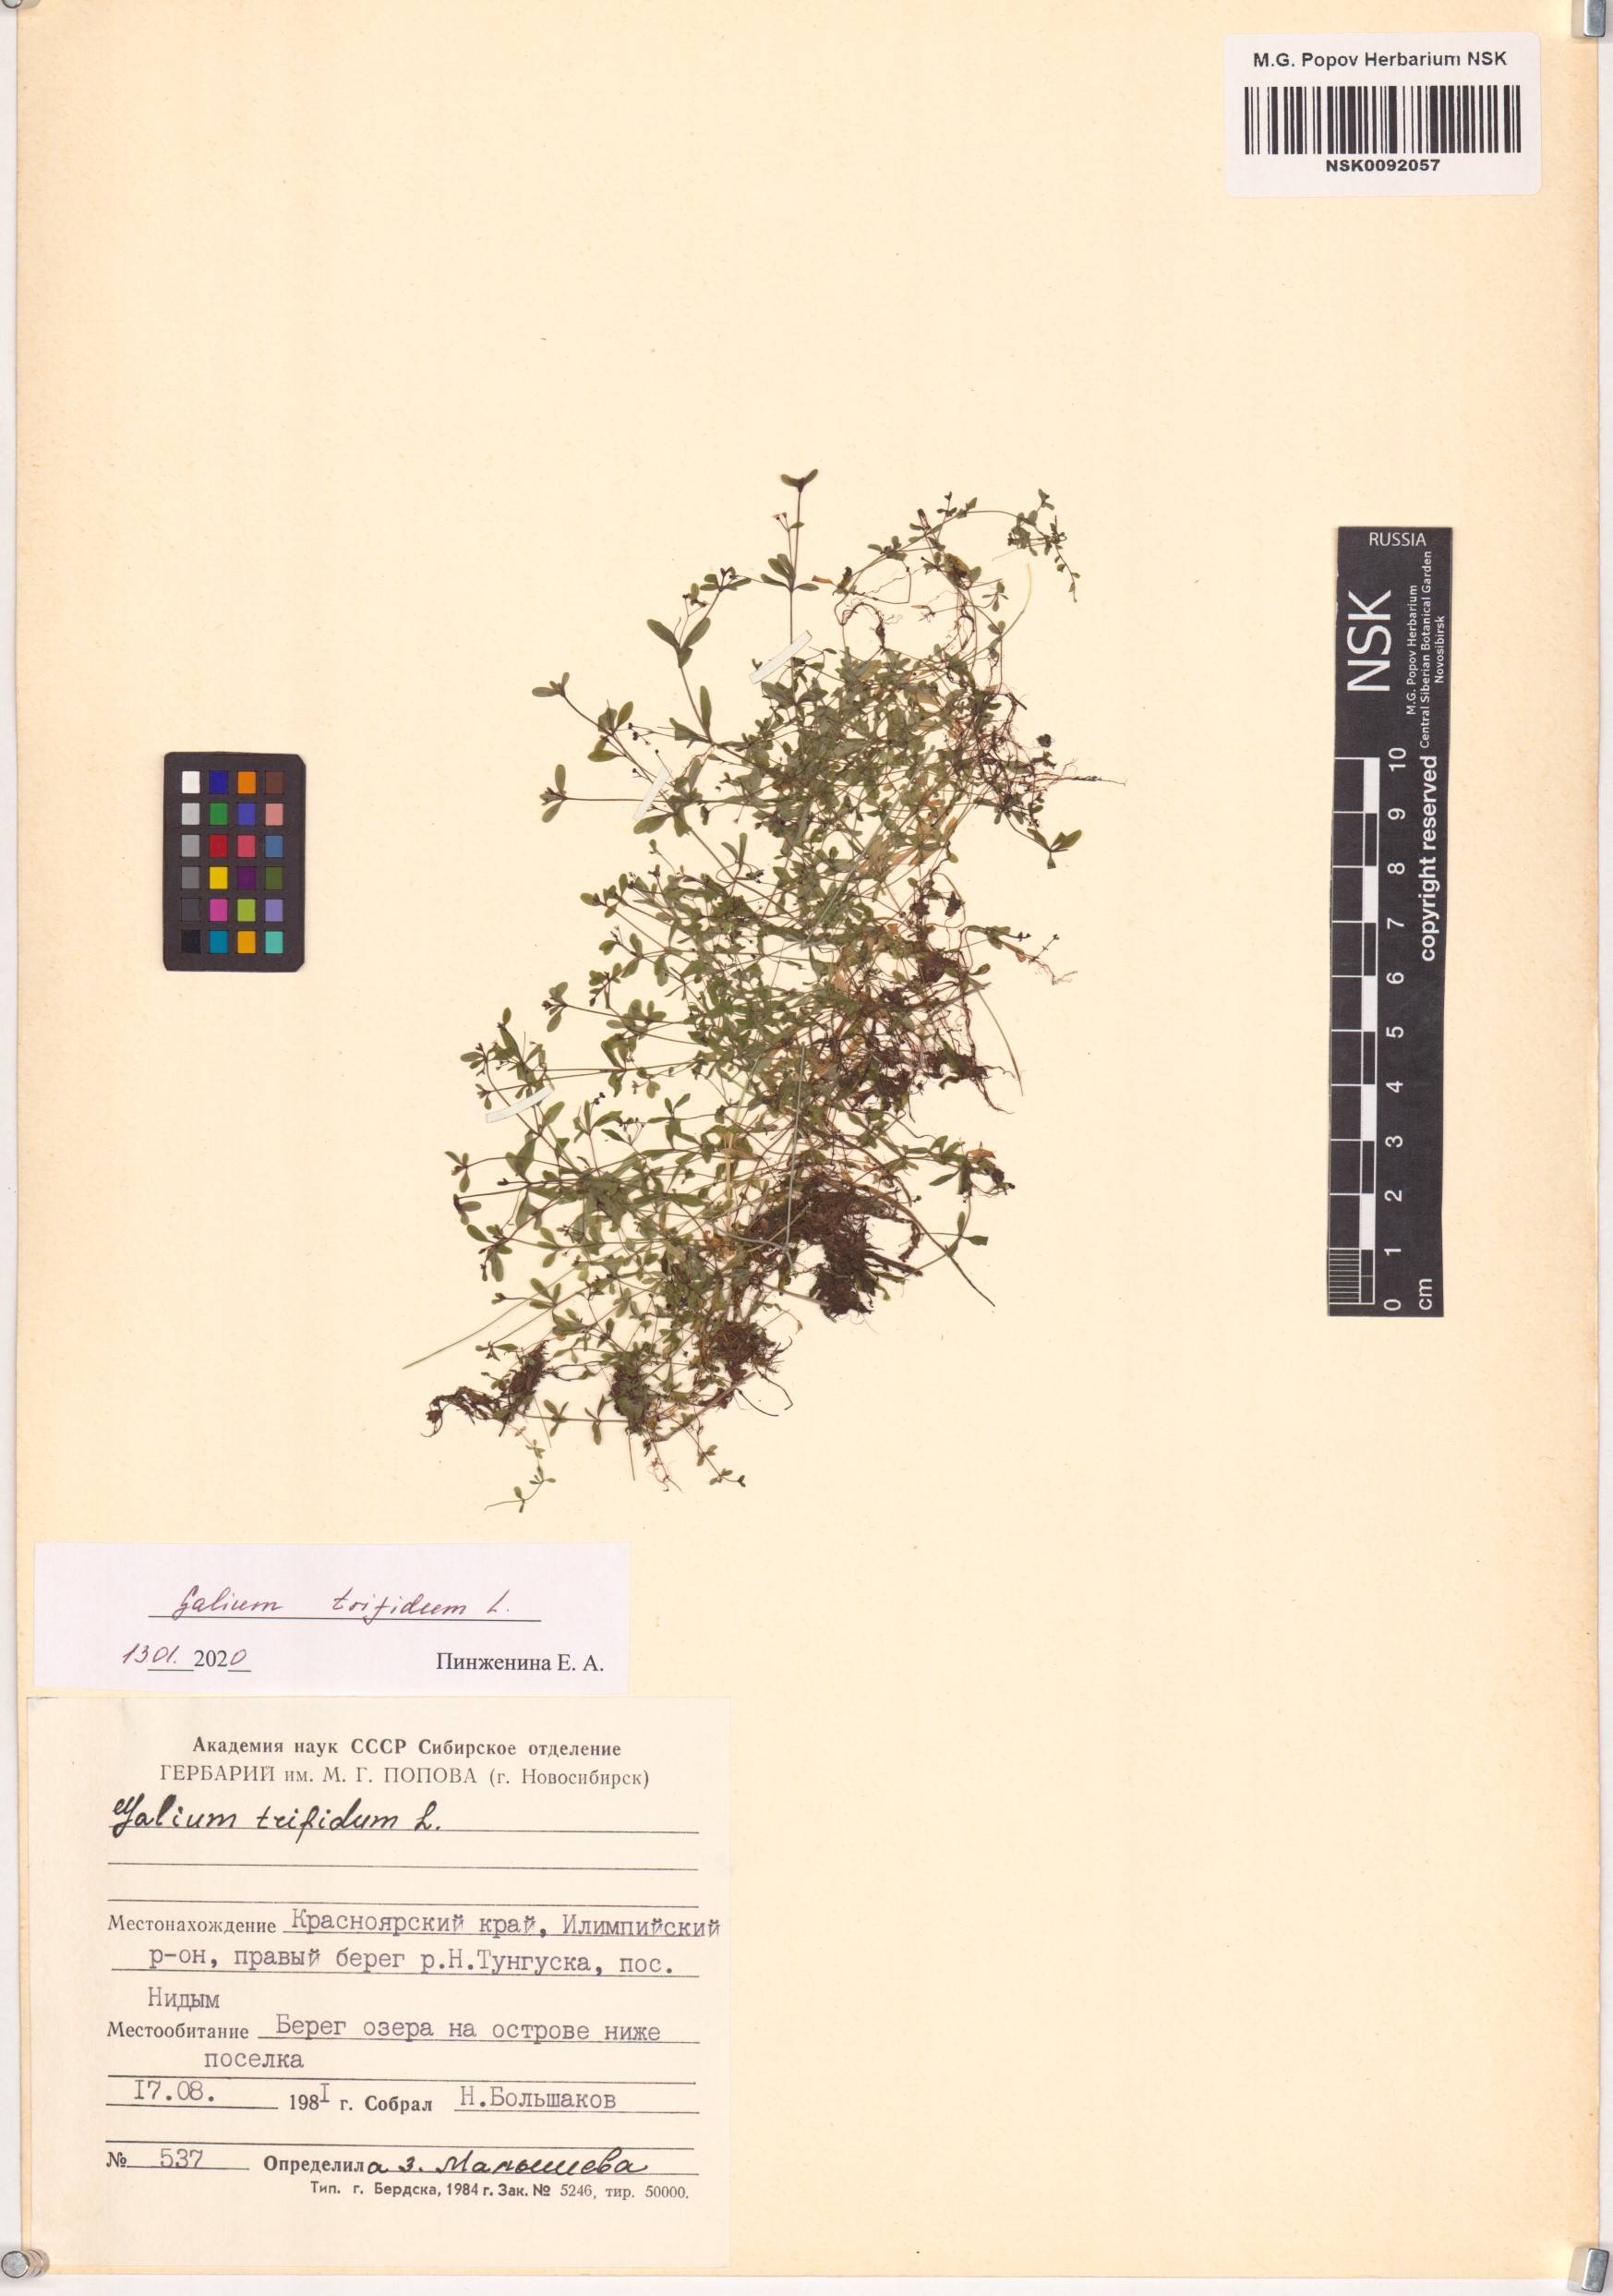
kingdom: Plantae
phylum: Tracheophyta
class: Magnoliopsida
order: Gentianales
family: Rubiaceae
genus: Galium
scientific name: Galium trifidum
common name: Small bedstraw
